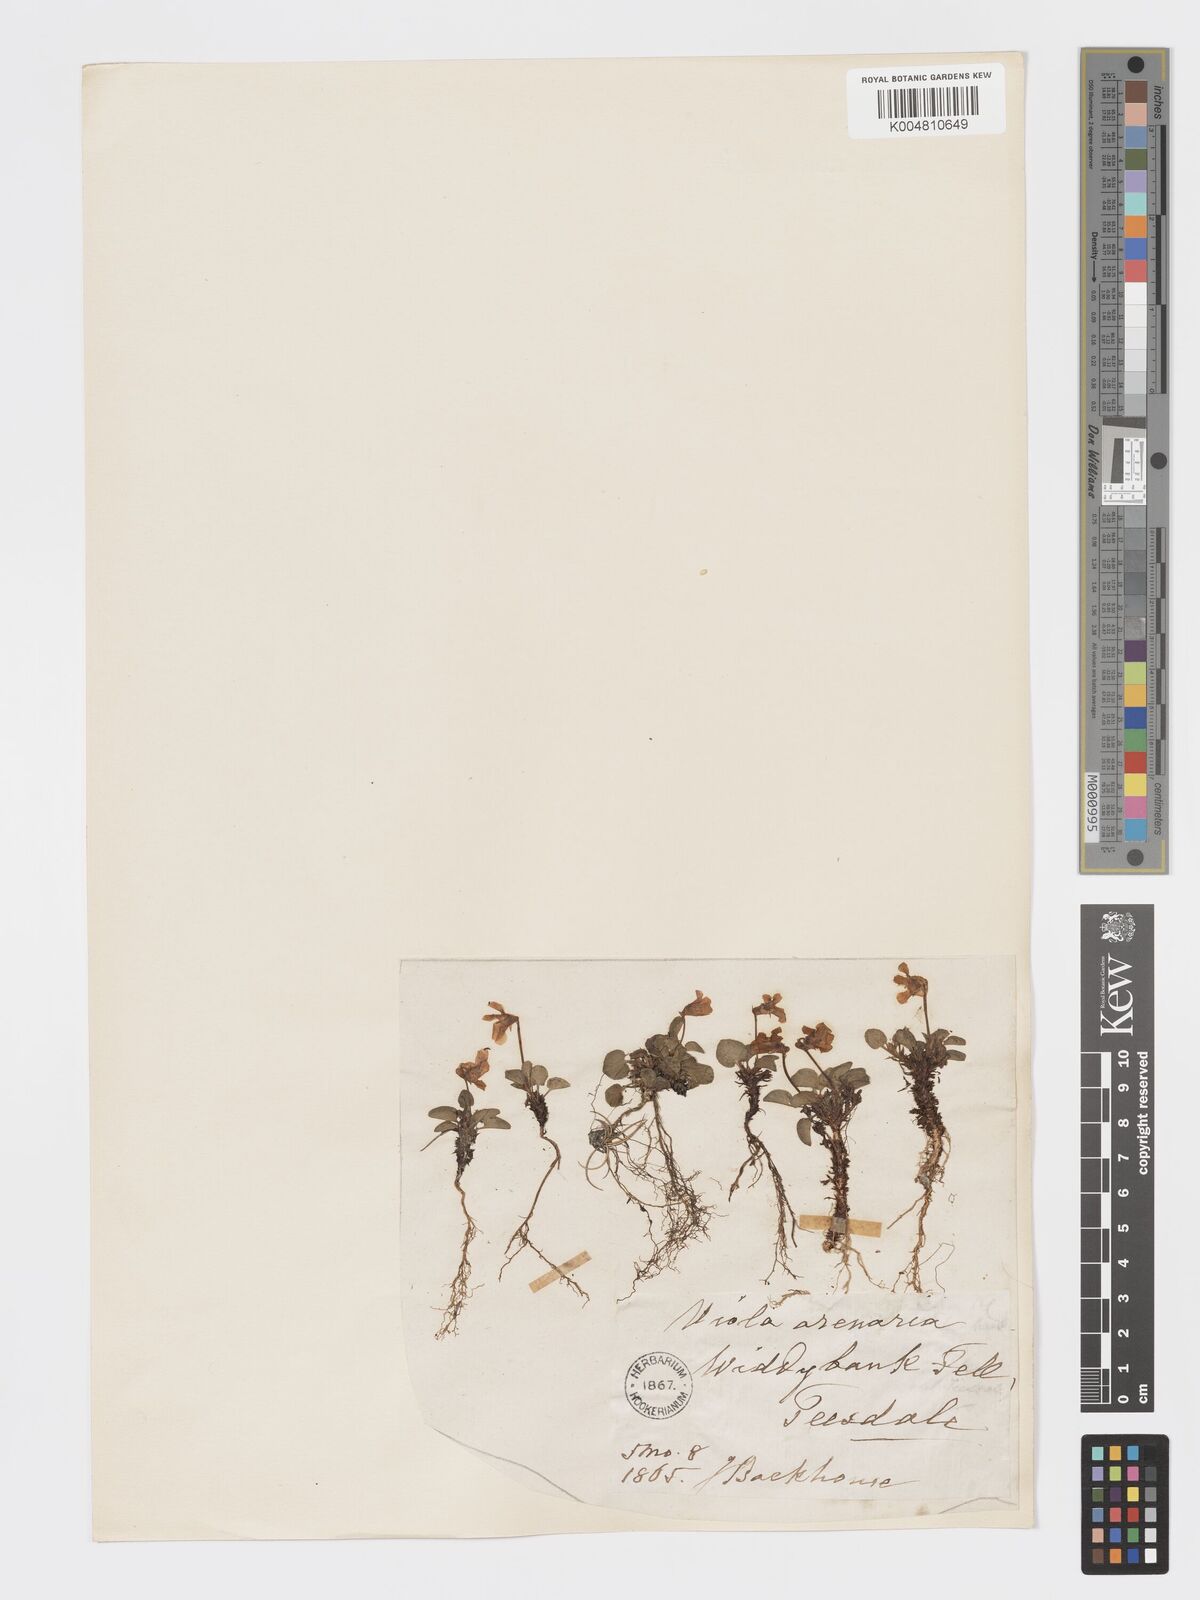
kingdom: Plantae
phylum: Tracheophyta
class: Magnoliopsida
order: Malpighiales
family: Violaceae
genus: Viola
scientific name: Viola rupestris
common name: Teesdale violet
